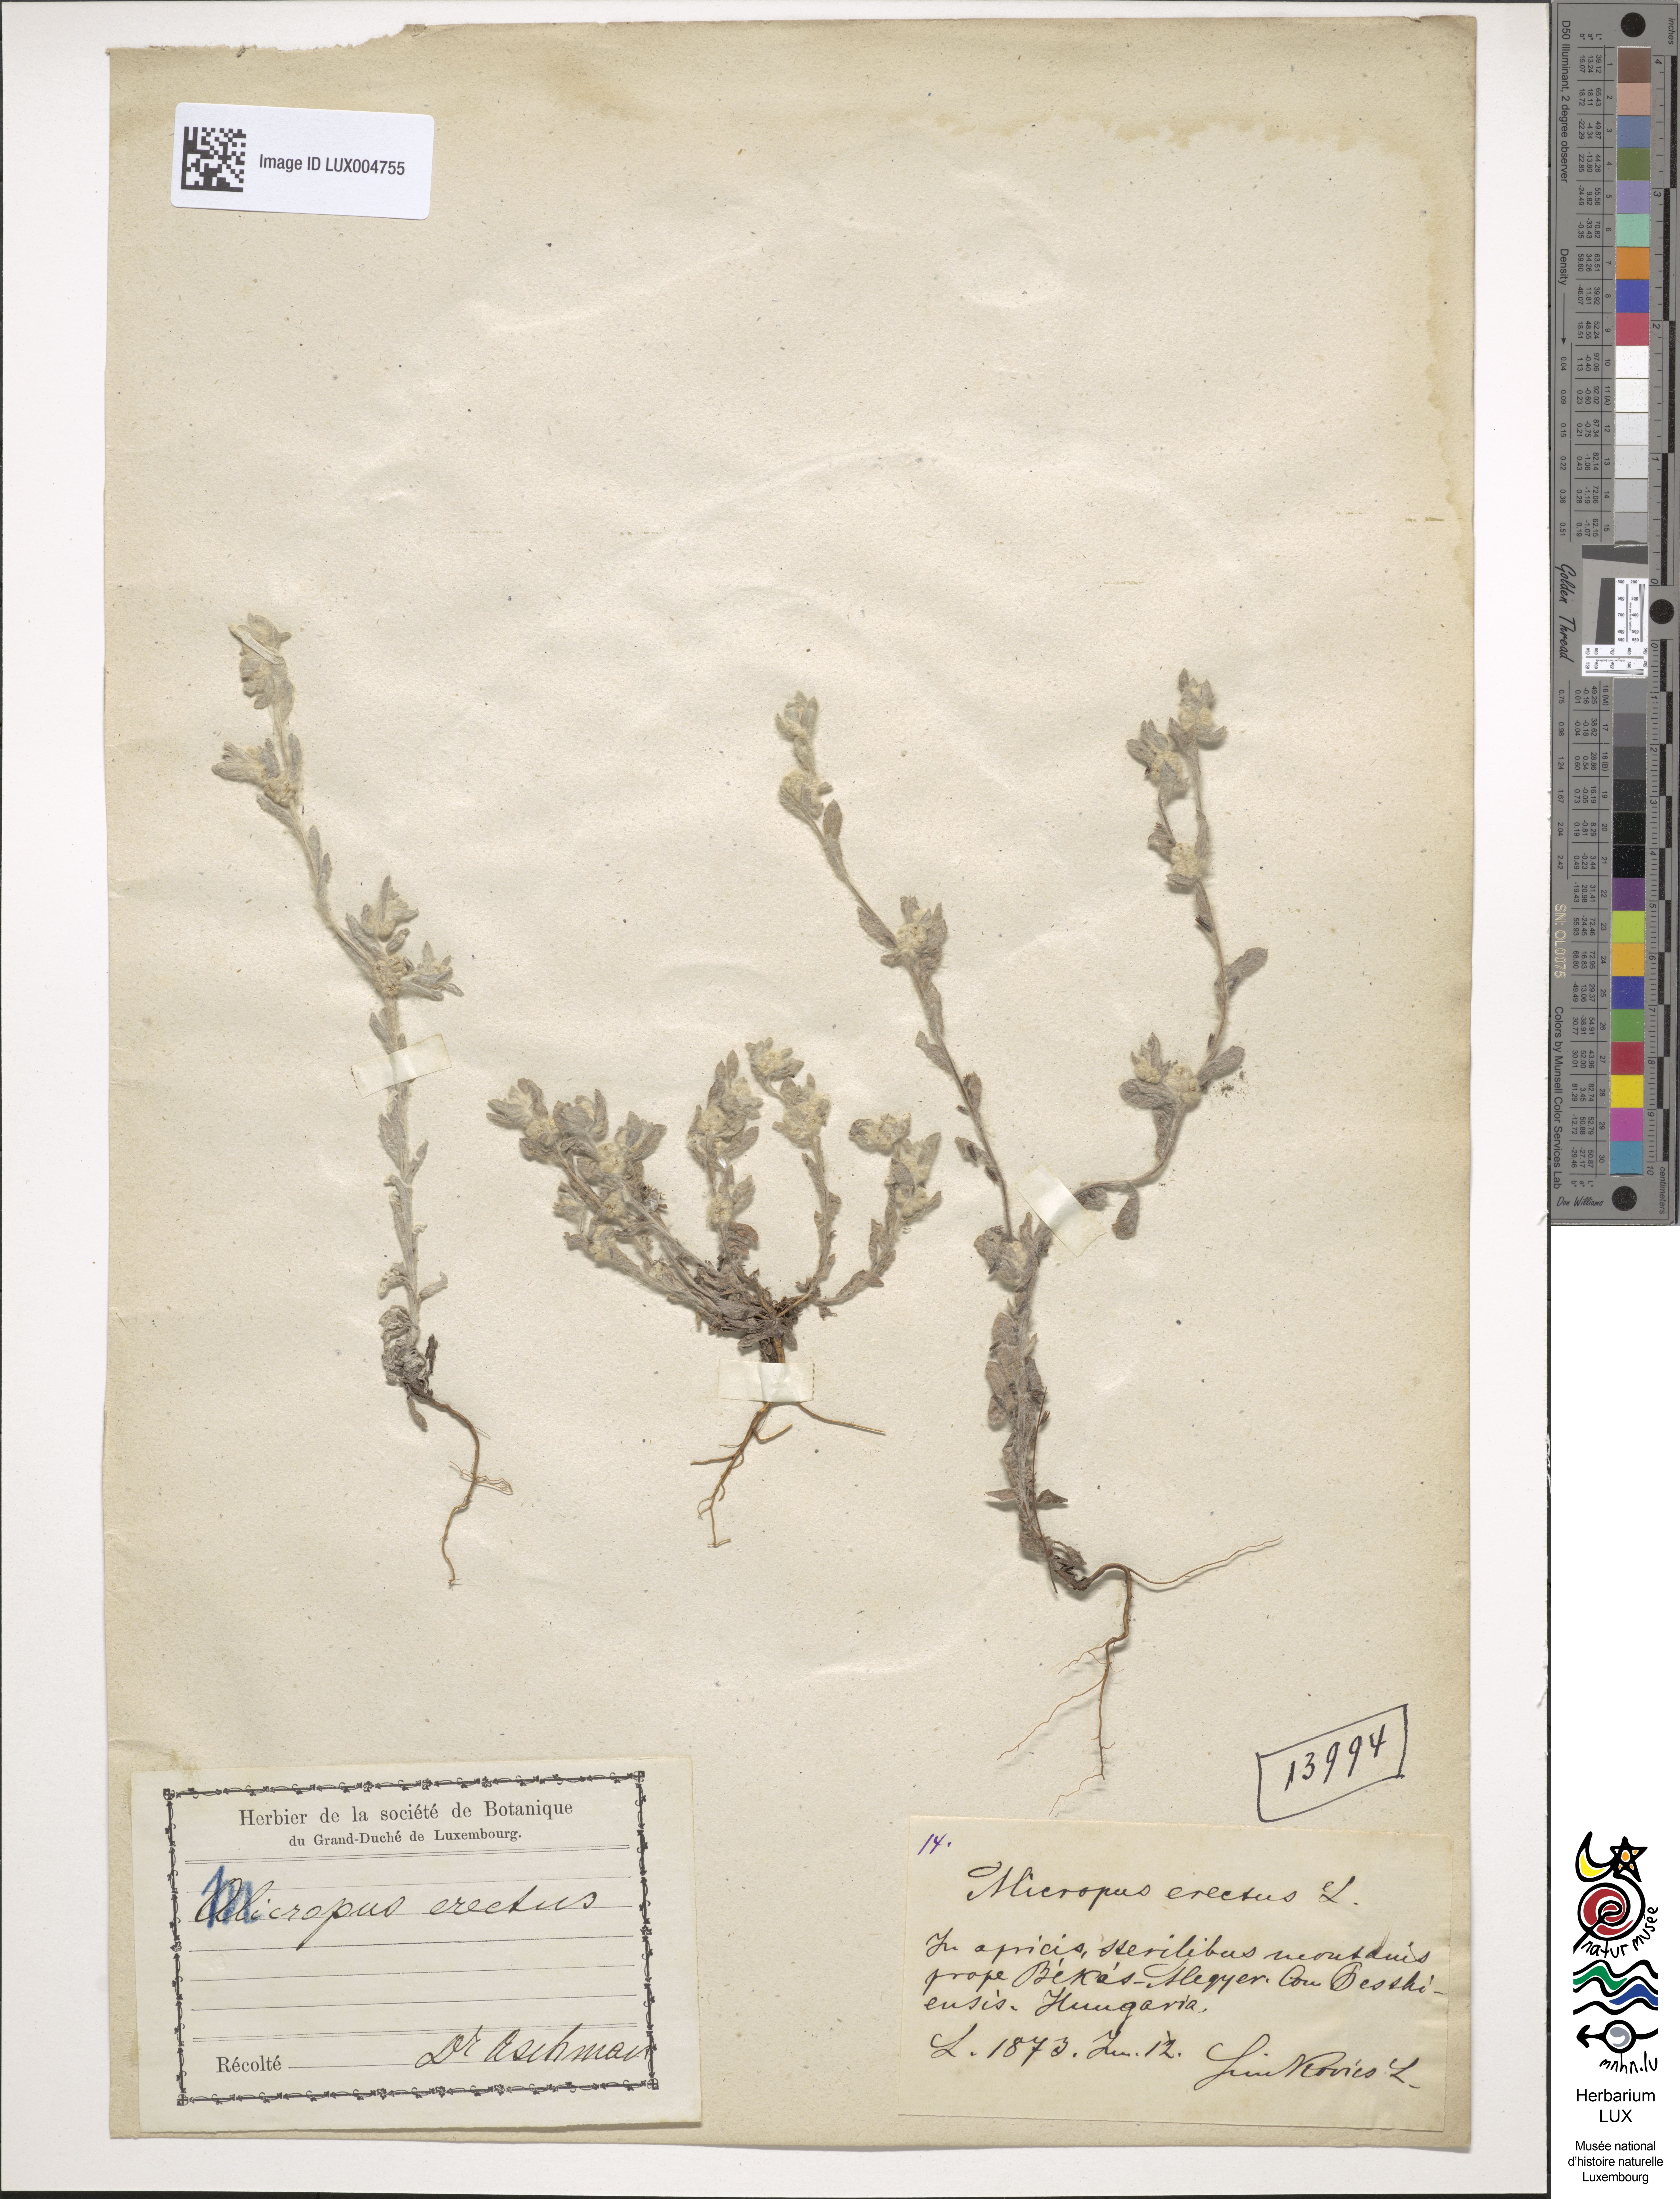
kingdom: Plantae
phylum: Tracheophyta
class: Magnoliopsida
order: Asterales
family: Asteraceae
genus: Bombycilaena
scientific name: Bombycilaena erecta
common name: Micropus
